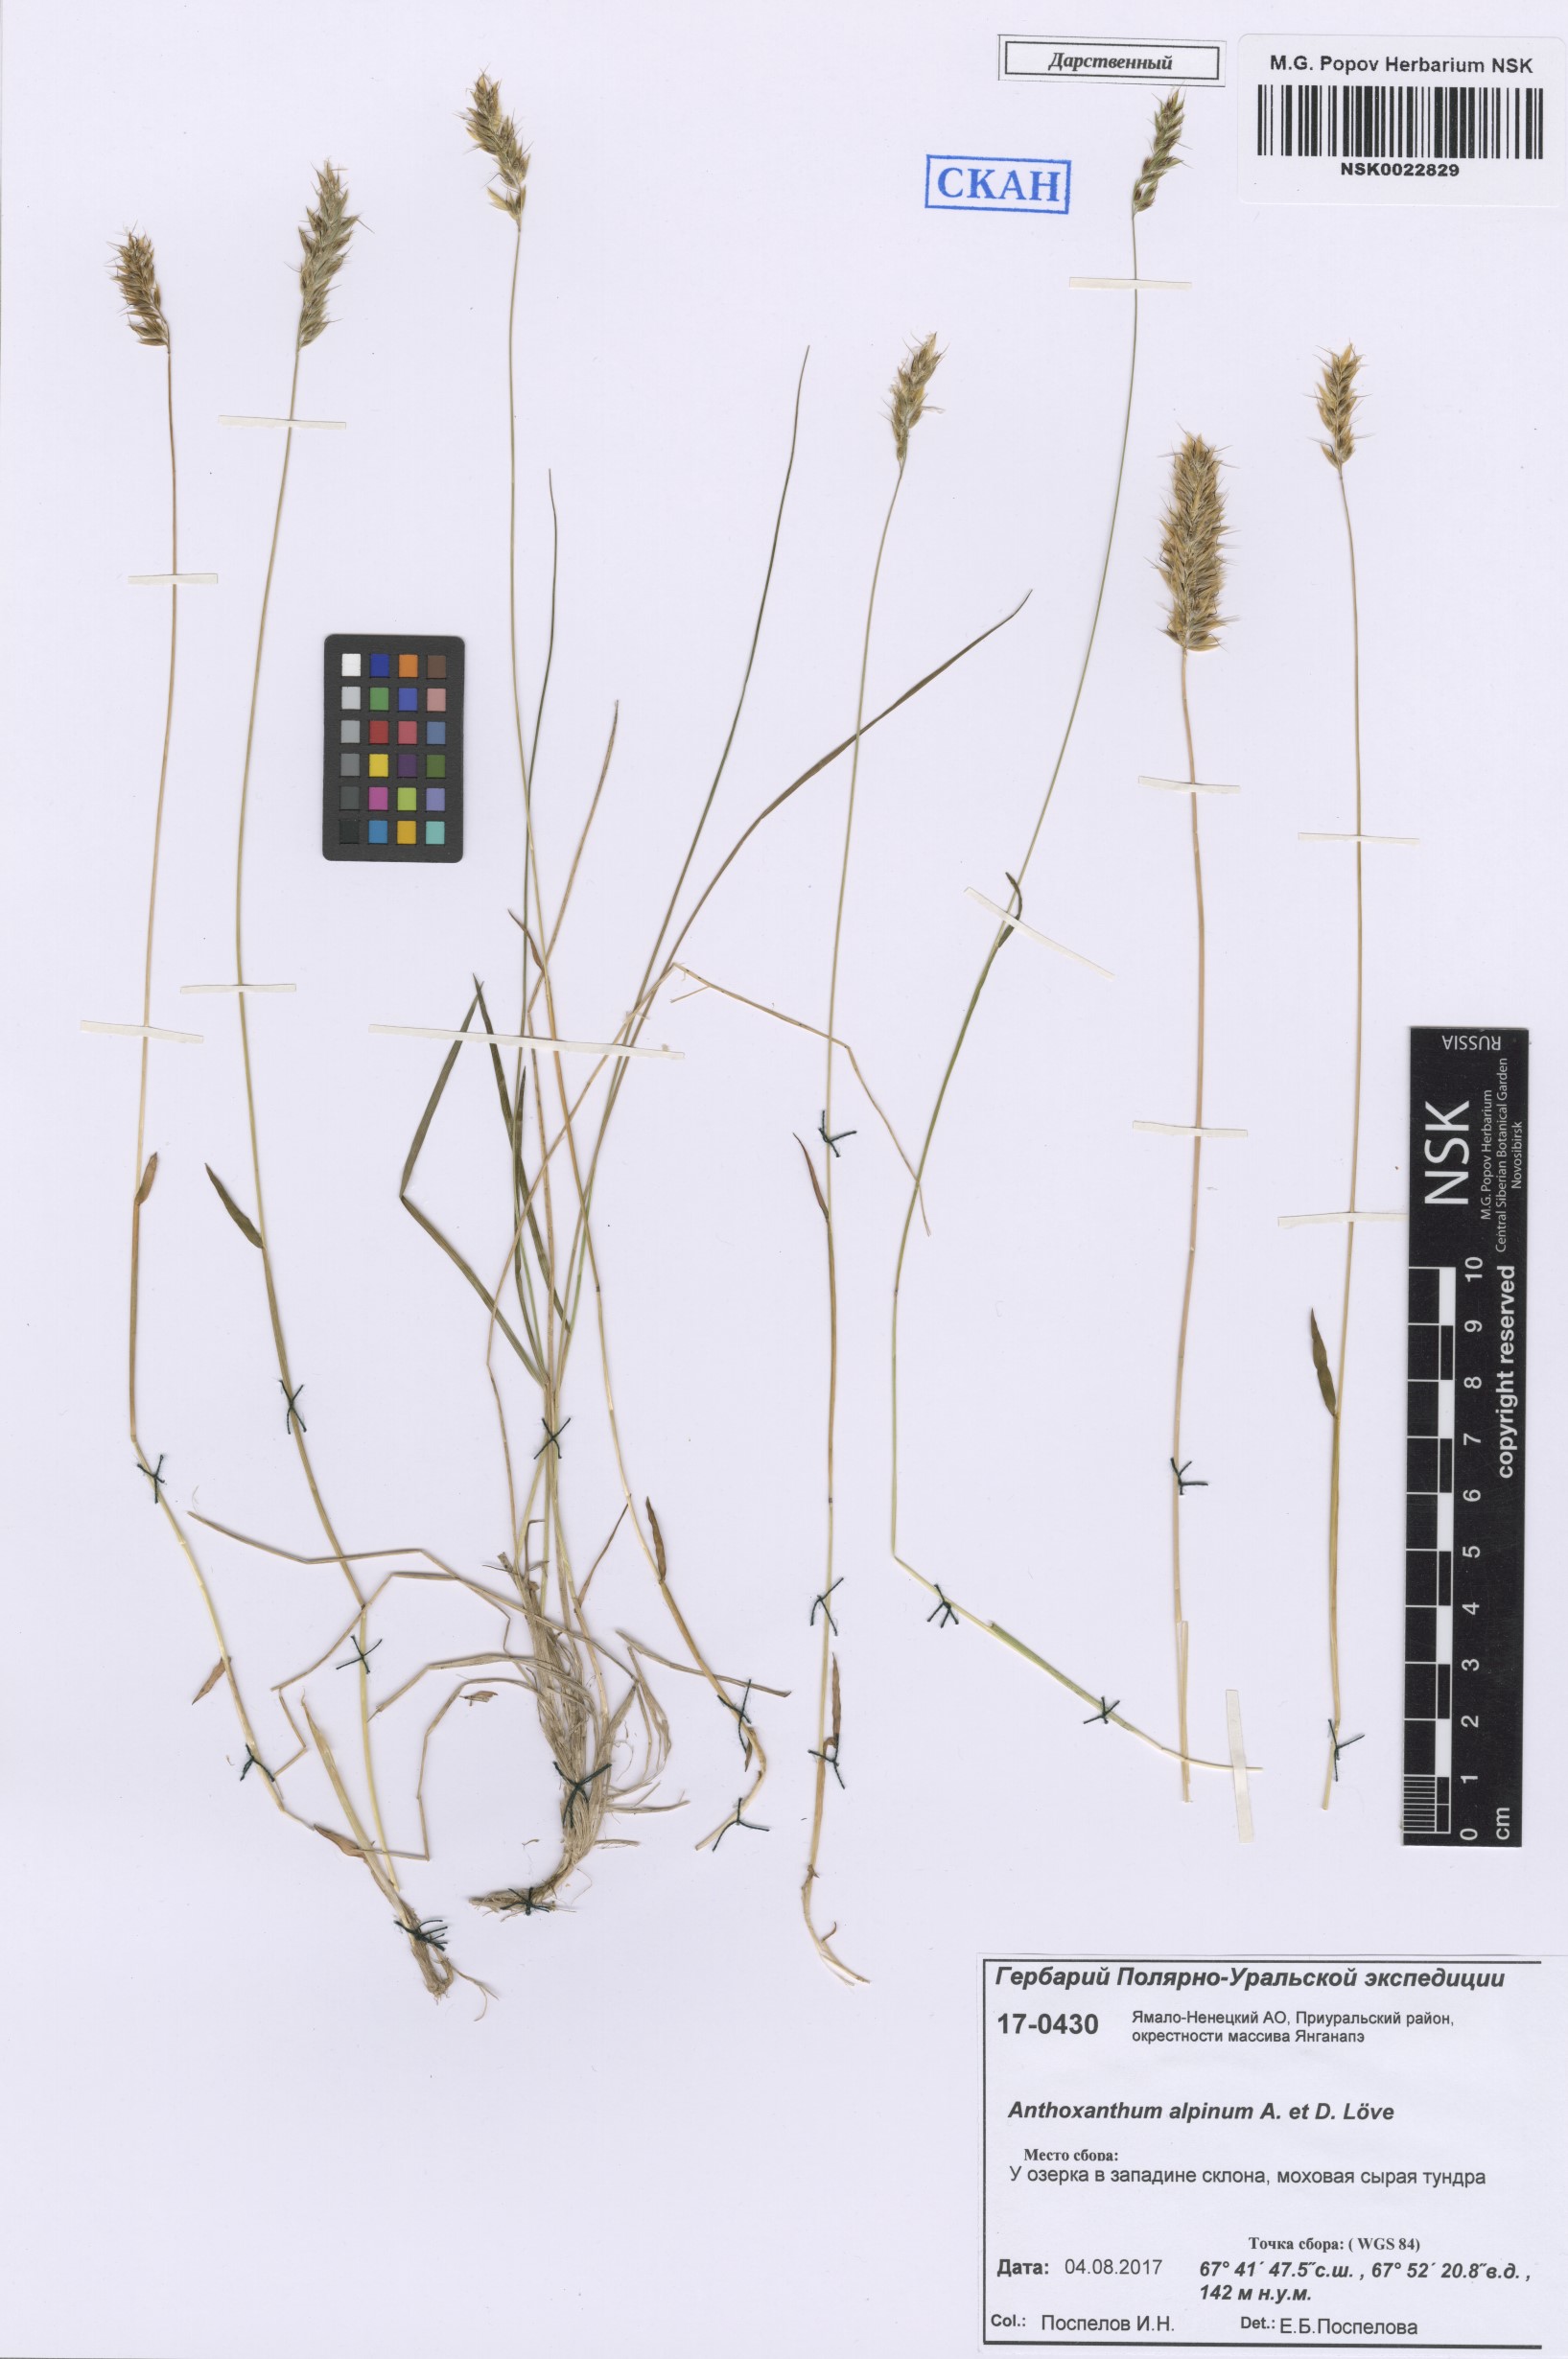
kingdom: Plantae
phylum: Tracheophyta
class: Liliopsida
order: Poales
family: Poaceae
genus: Anthoxanthum
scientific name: Anthoxanthum nipponicum
